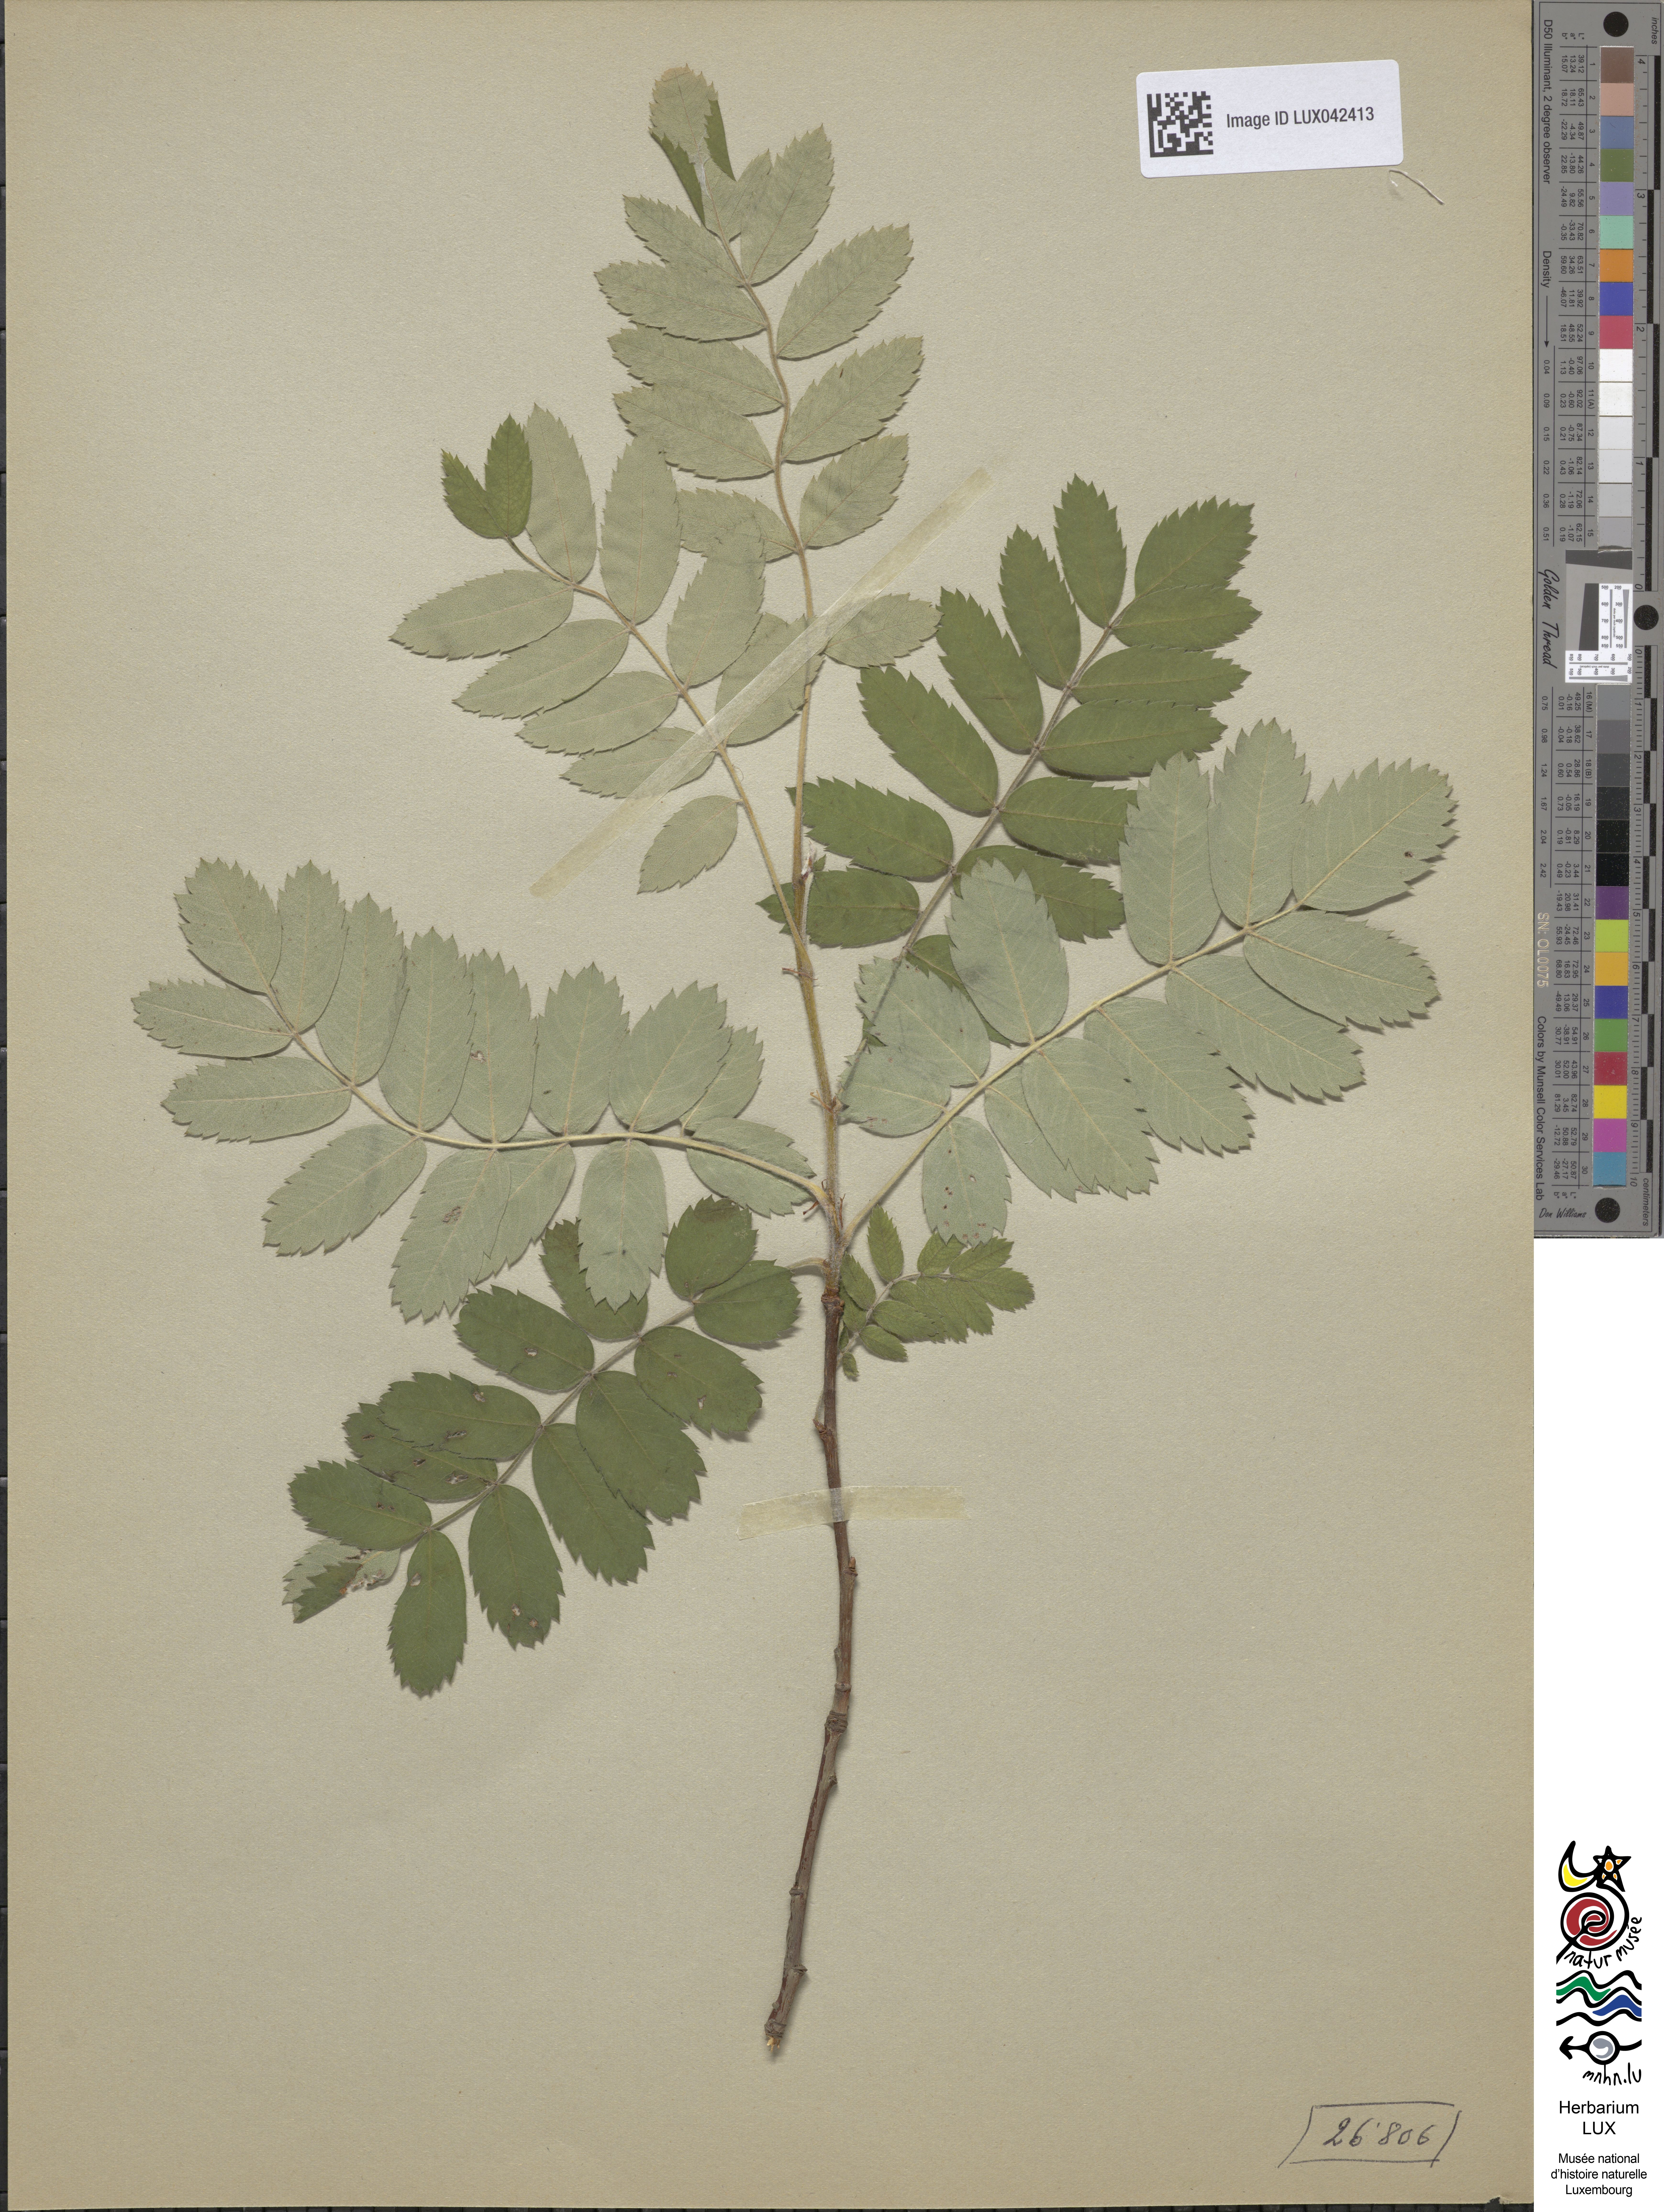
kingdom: Plantae
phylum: Tracheophyta
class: Magnoliopsida
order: Rosales
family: Rosaceae
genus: Cormus
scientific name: Cormus domestica
